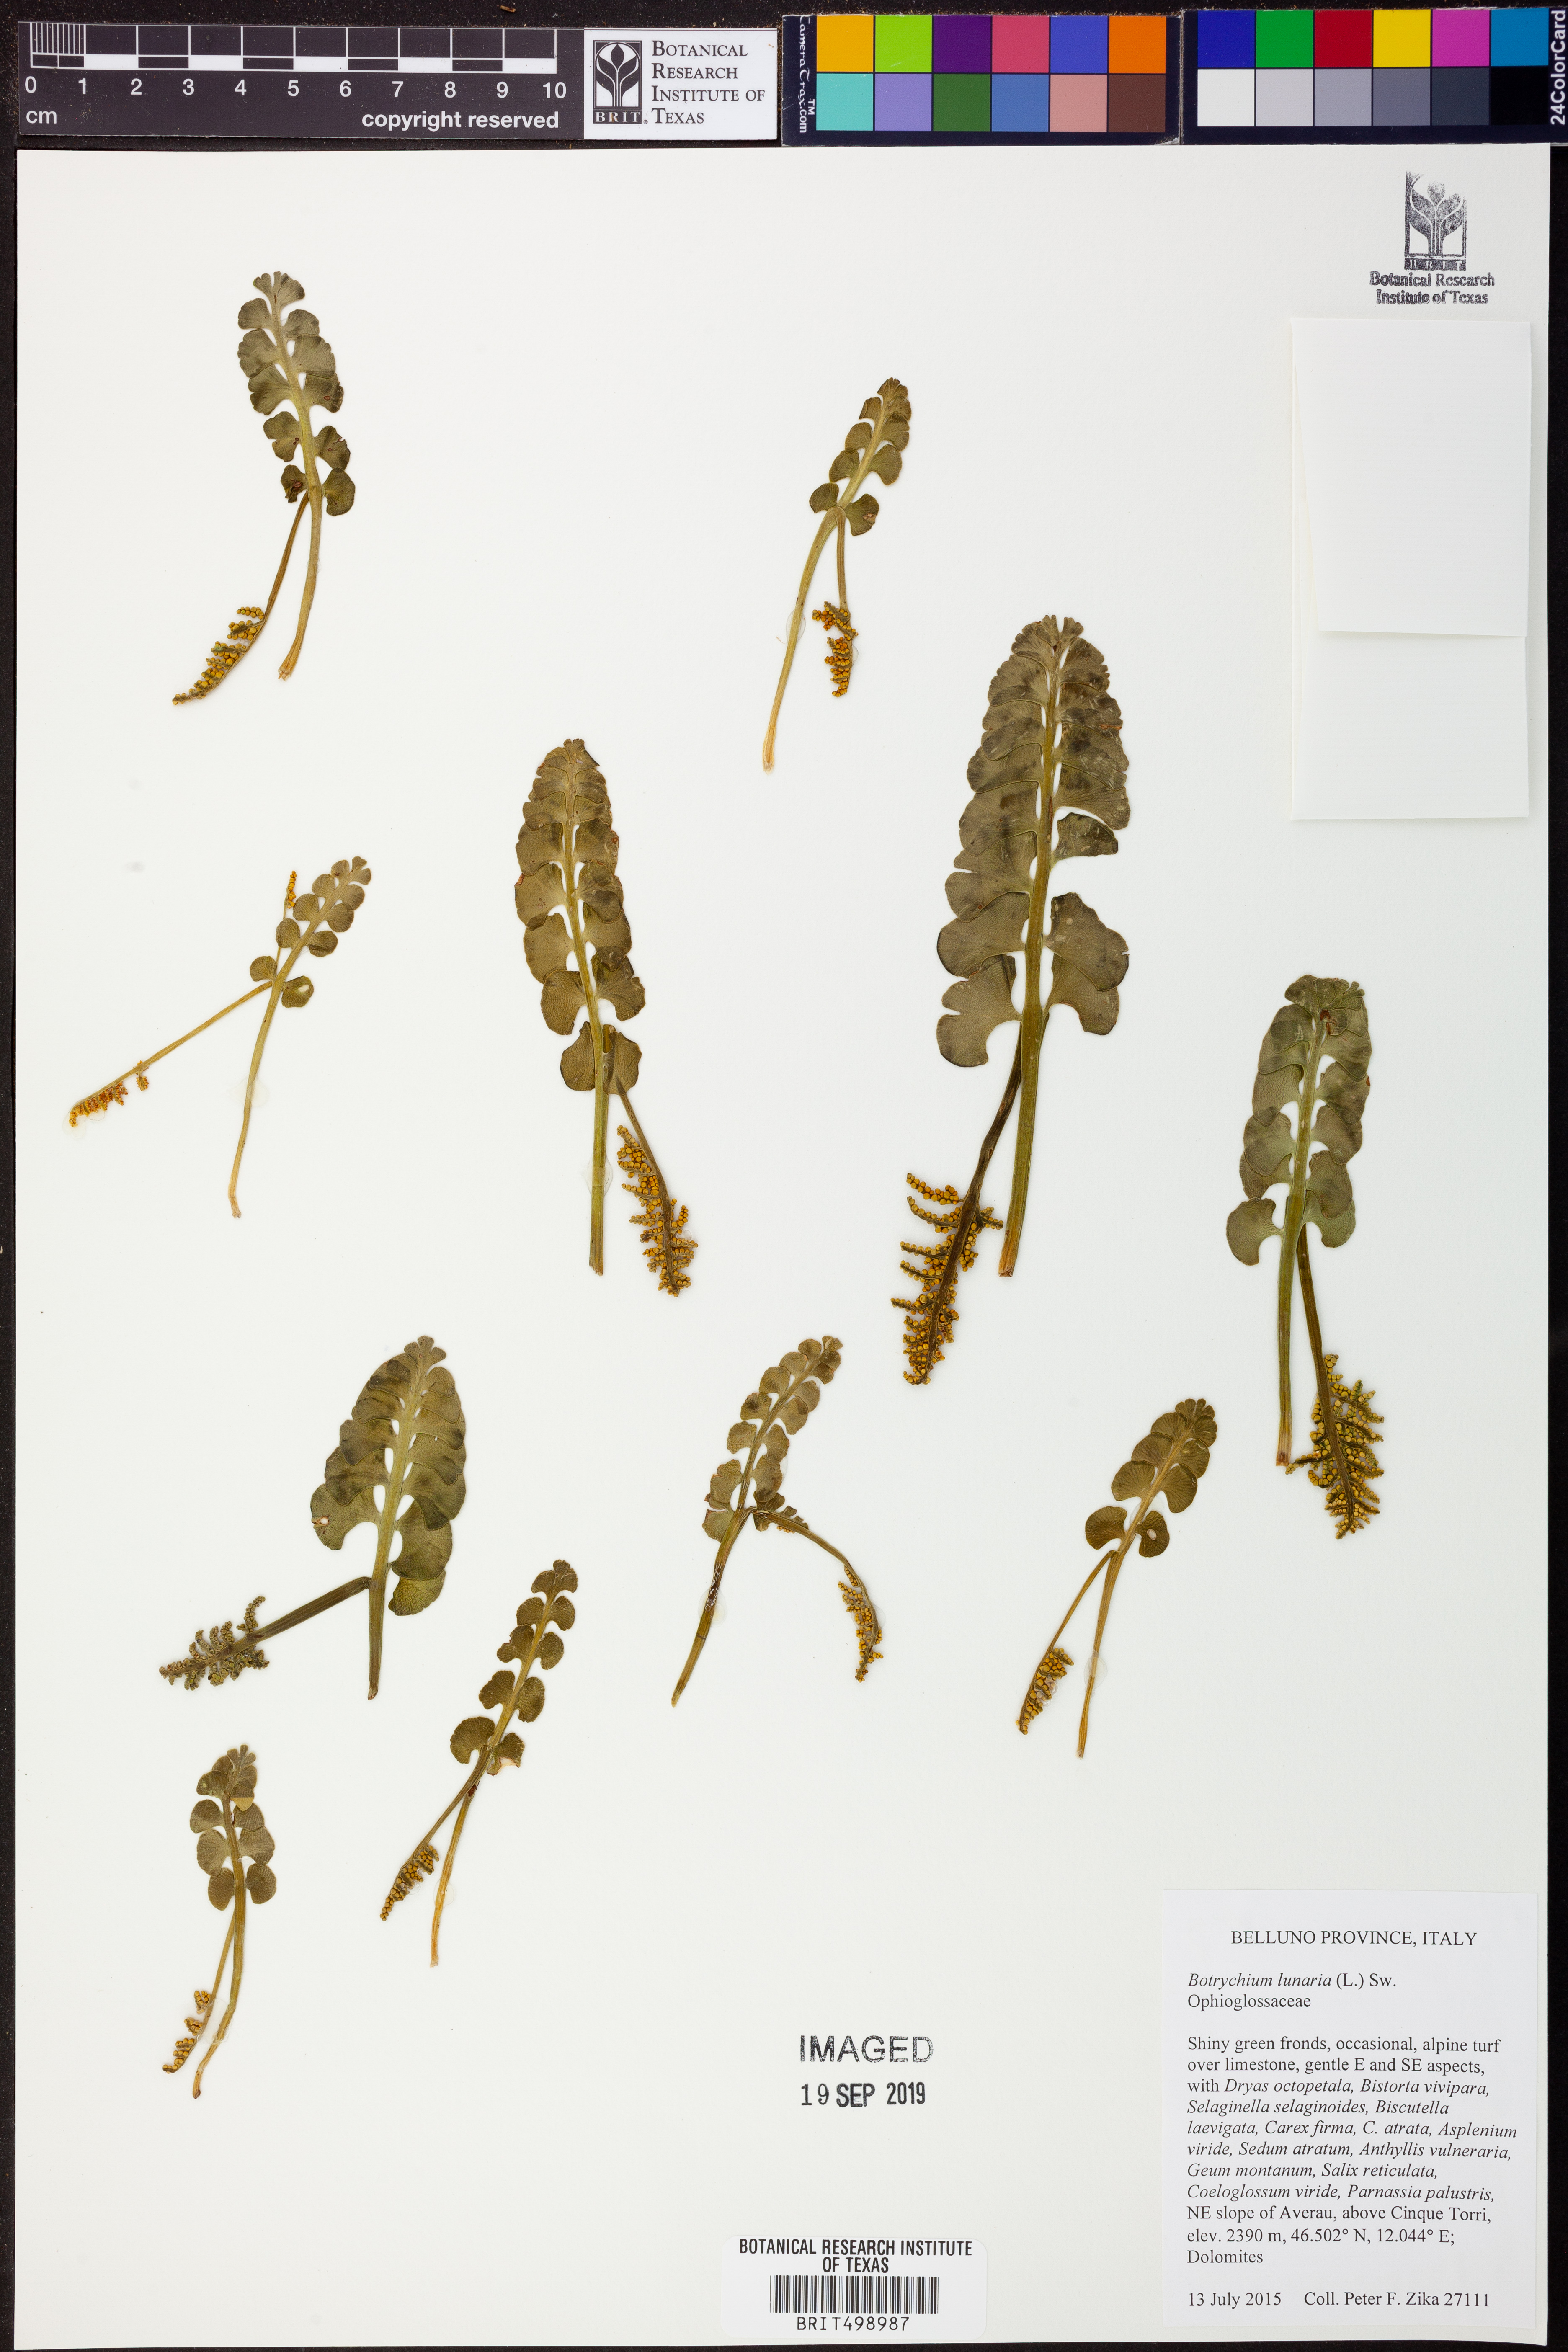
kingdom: Plantae
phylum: Tracheophyta
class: Polypodiopsida
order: Ophioglossales
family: Ophioglossaceae
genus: Botrychium
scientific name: Botrychium lunaria
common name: Moonwort
